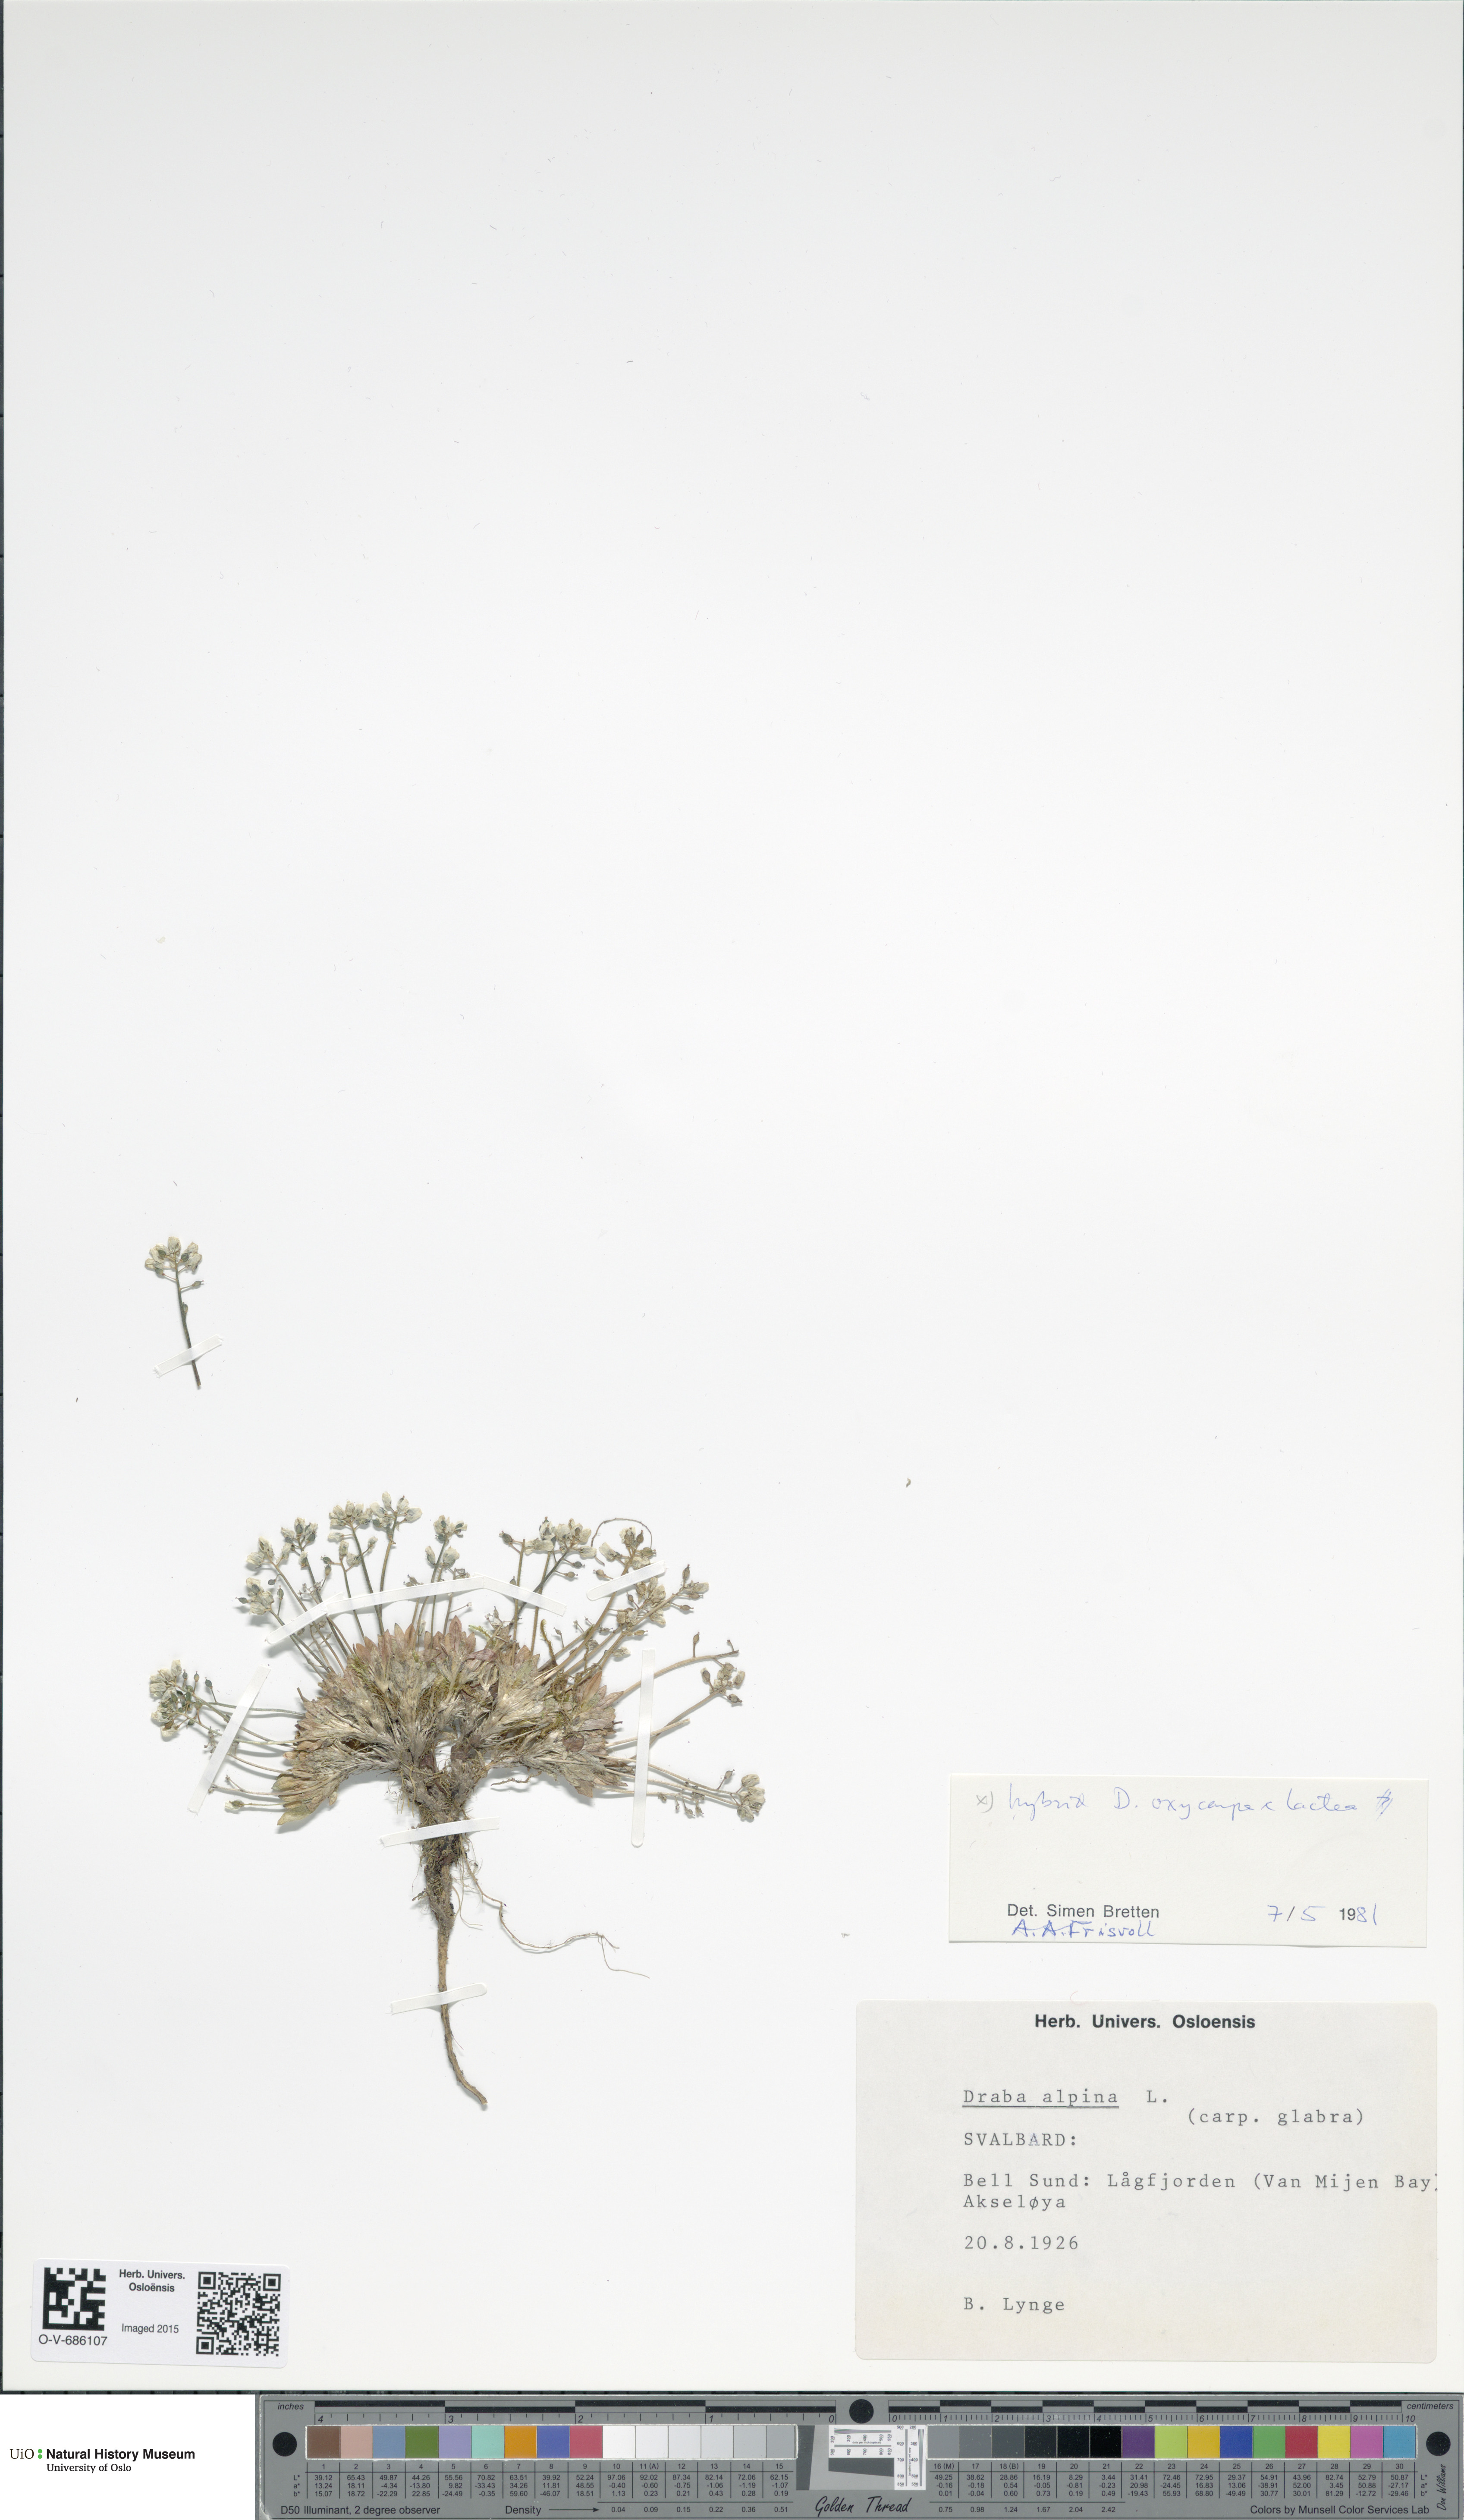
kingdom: Plantae
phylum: Tracheophyta
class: Magnoliopsida
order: Brassicales
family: Brassicaceae
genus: Draba
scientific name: Draba
